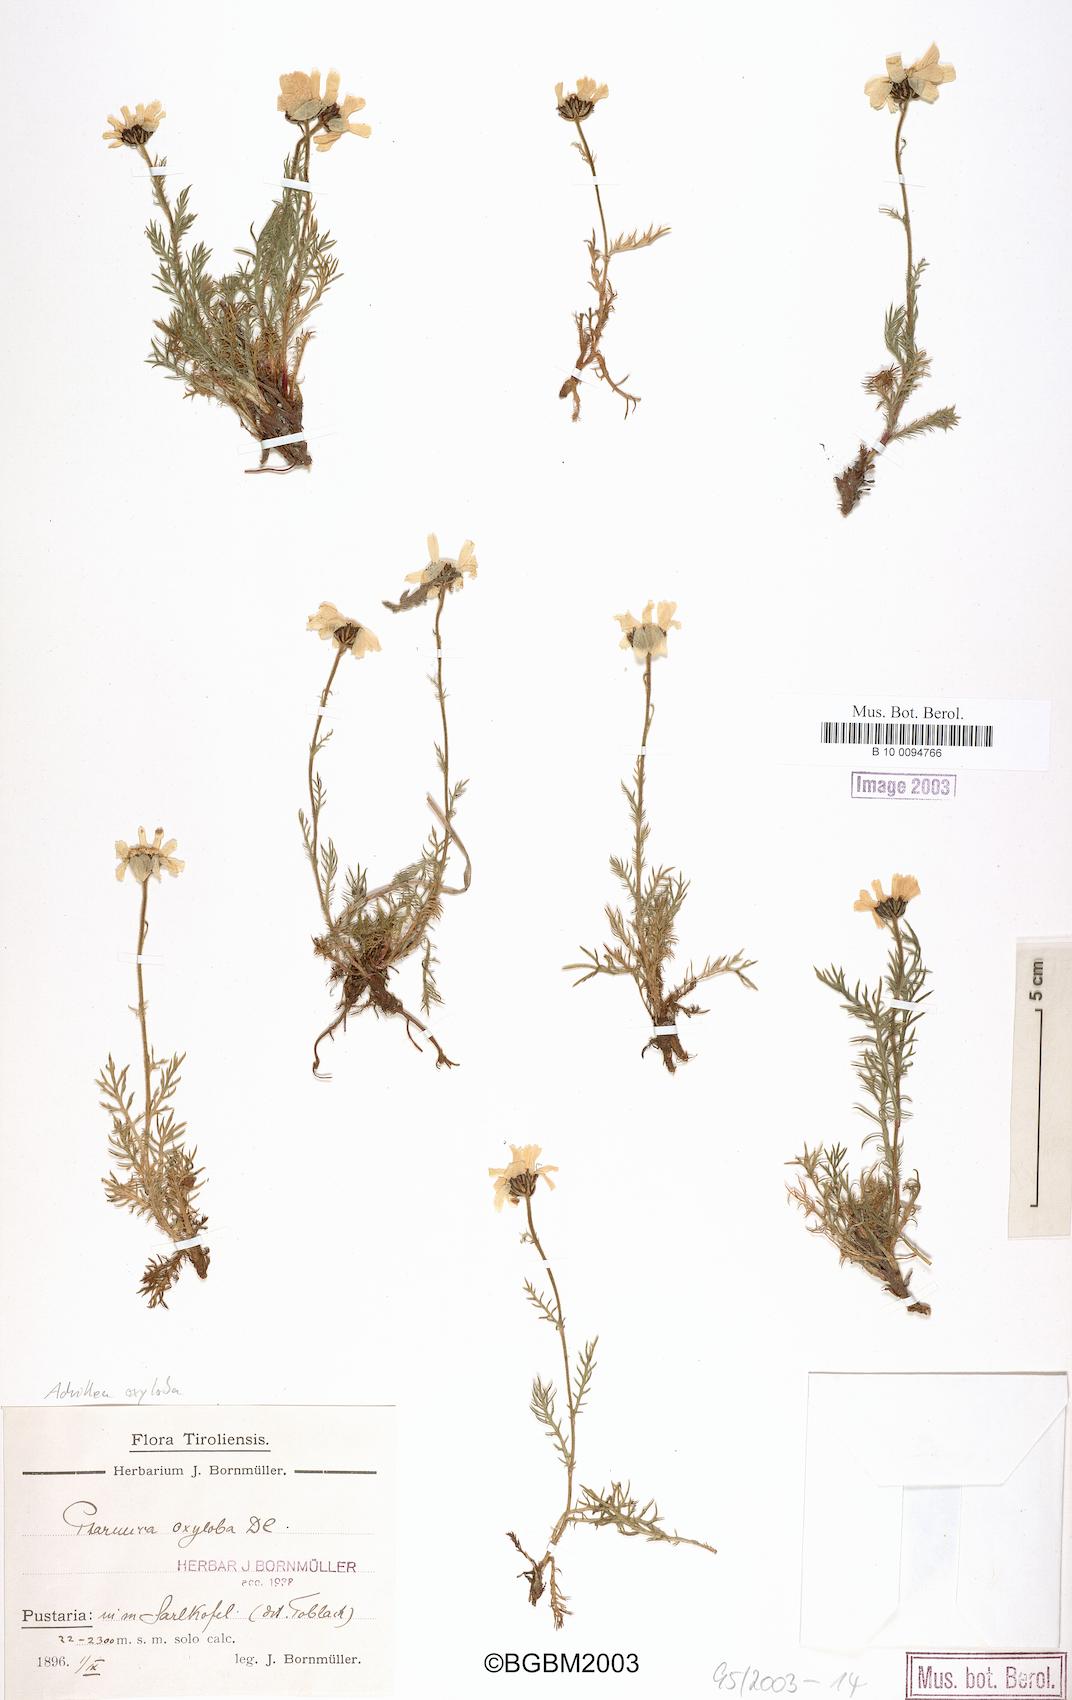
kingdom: Plantae
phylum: Tracheophyta
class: Magnoliopsida
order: Asterales
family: Asteraceae
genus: Achillea
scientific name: Achillea oxyloba
